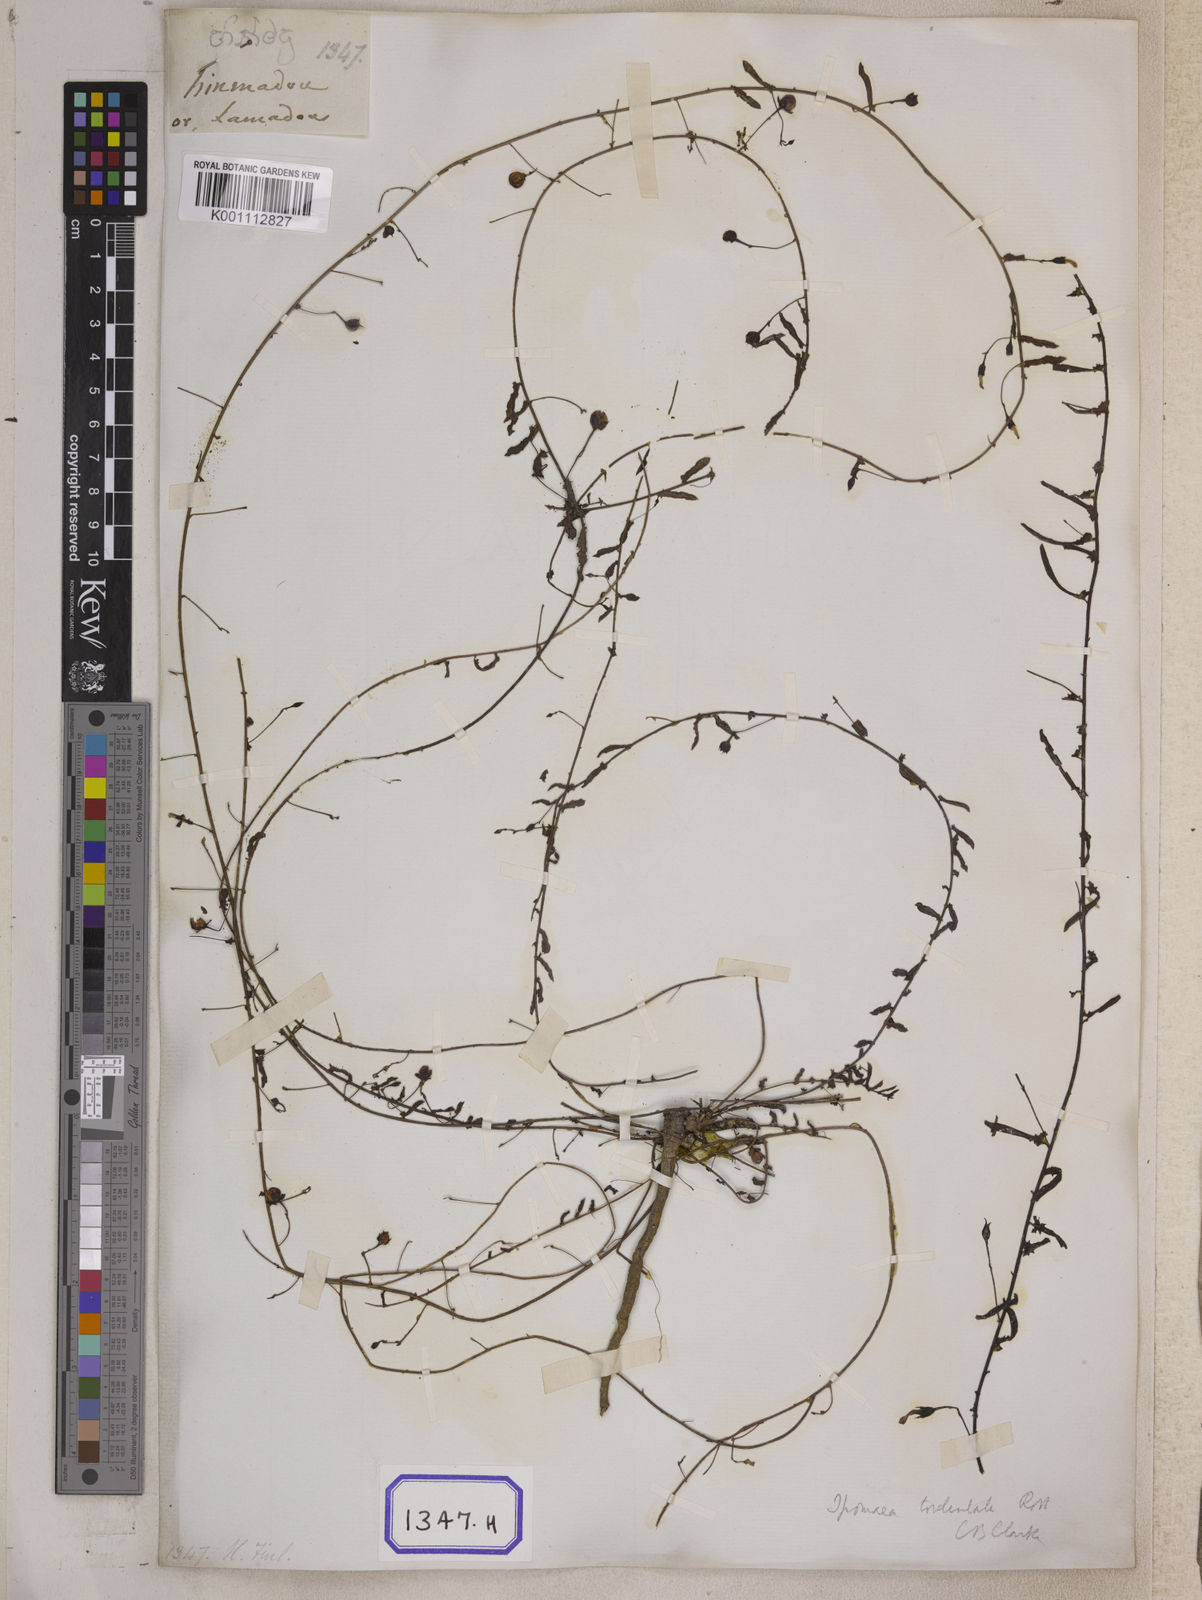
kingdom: Plantae
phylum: Tracheophyta
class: Magnoliopsida
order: Solanales
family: Convolvulaceae
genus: Xenostegia
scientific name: Xenostegia tridentata
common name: African morningvine
